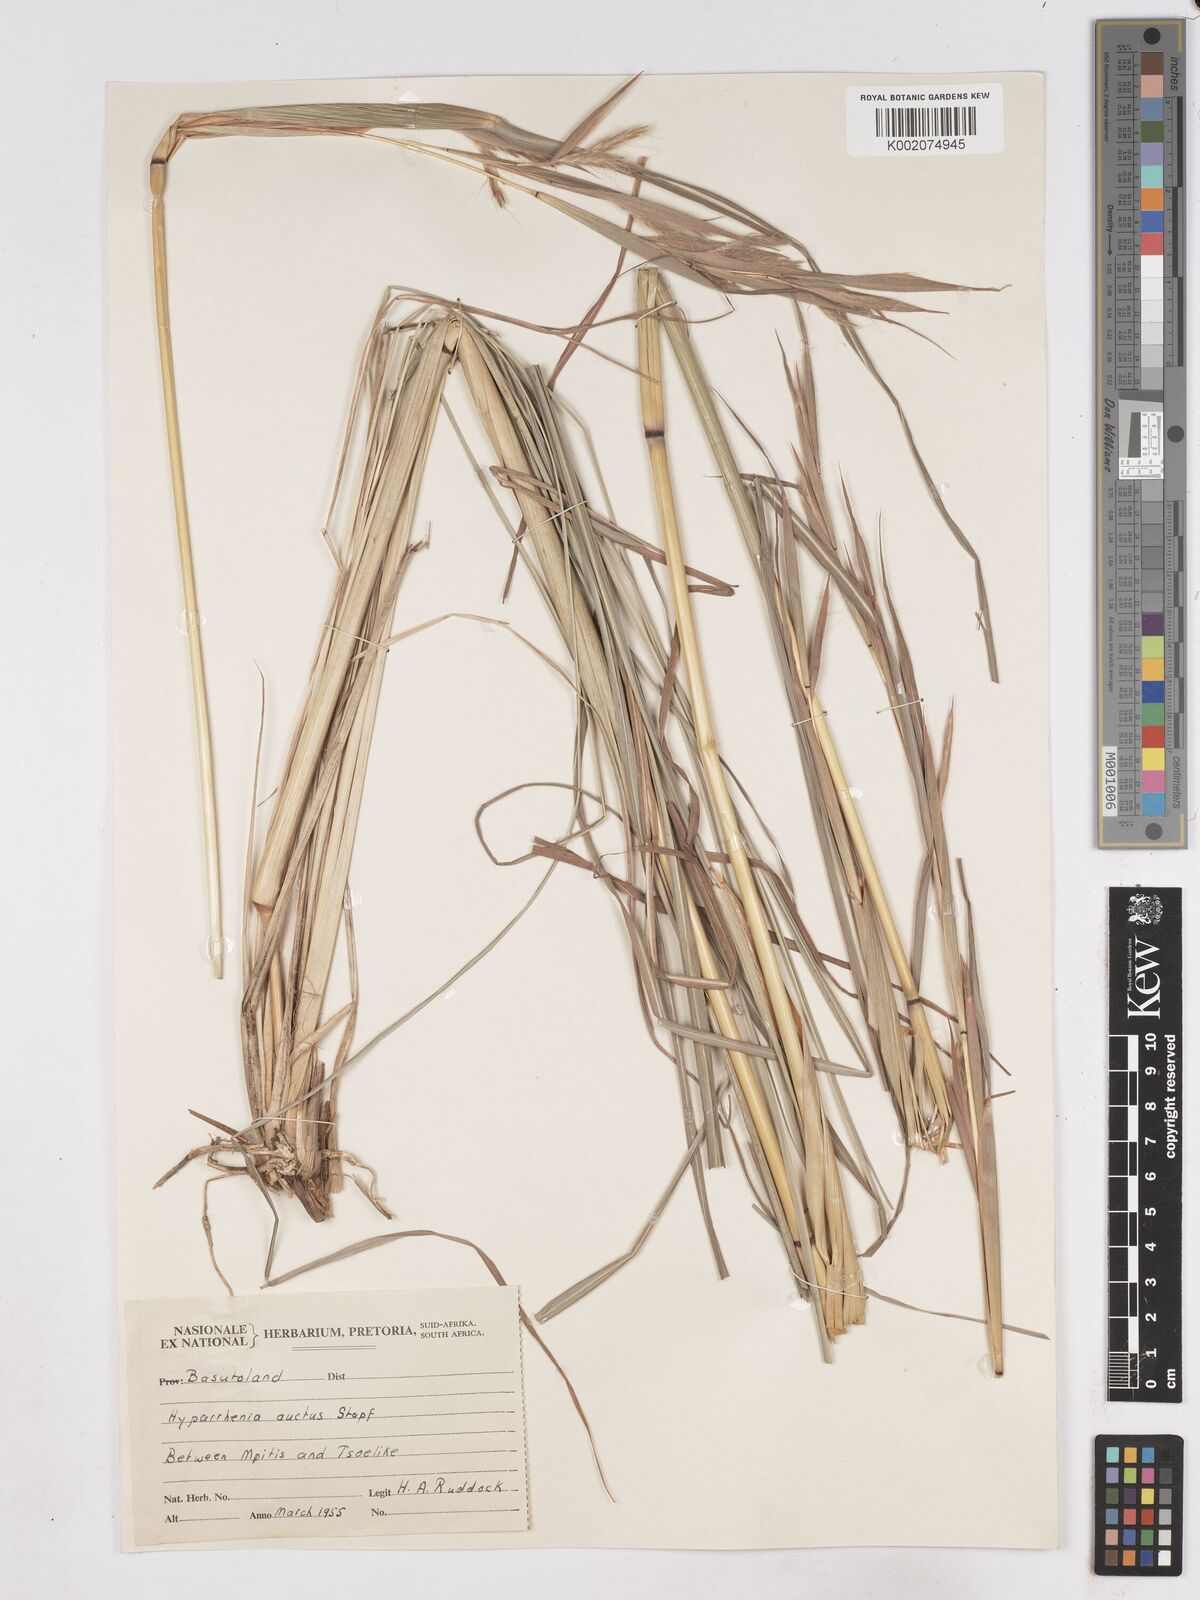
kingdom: Plantae
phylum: Tracheophyta
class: Liliopsida
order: Poales
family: Poaceae
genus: Hyparrhenia
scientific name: Hyparrhenia dregeana
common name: Silky thatching grass
